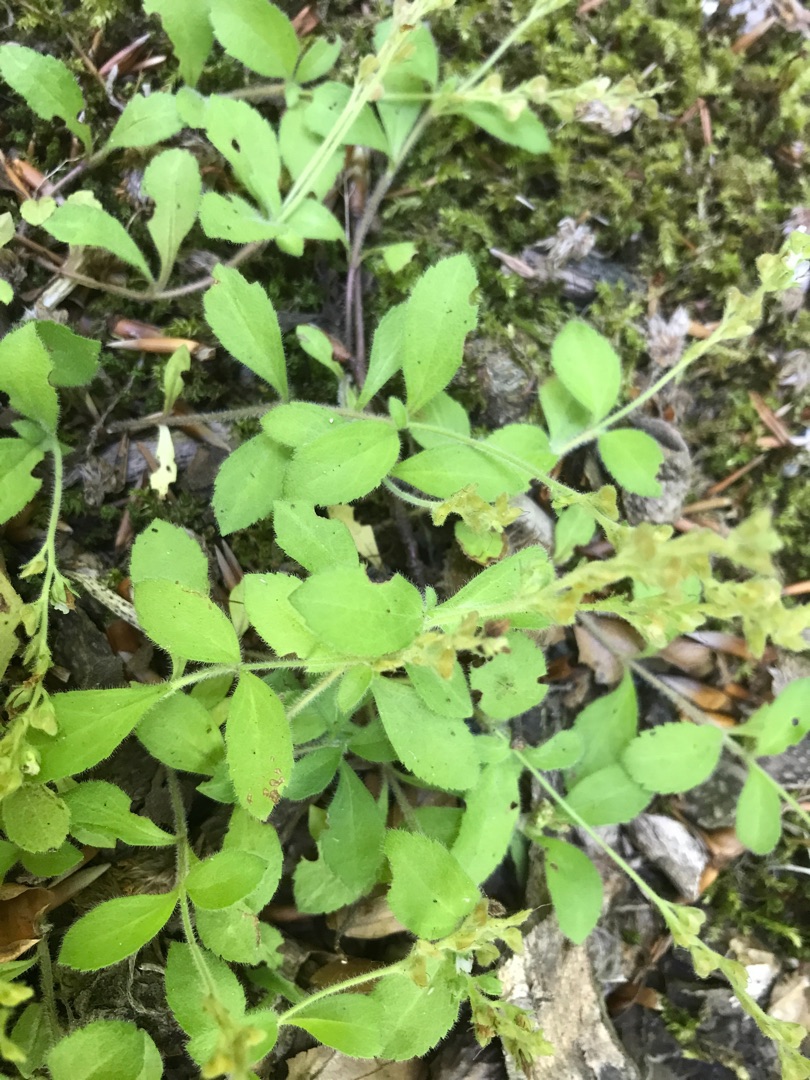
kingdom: Plantae
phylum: Tracheophyta
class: Magnoliopsida
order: Lamiales
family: Plantaginaceae
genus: Veronica
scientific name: Veronica officinalis
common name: Læge-ærenpris
